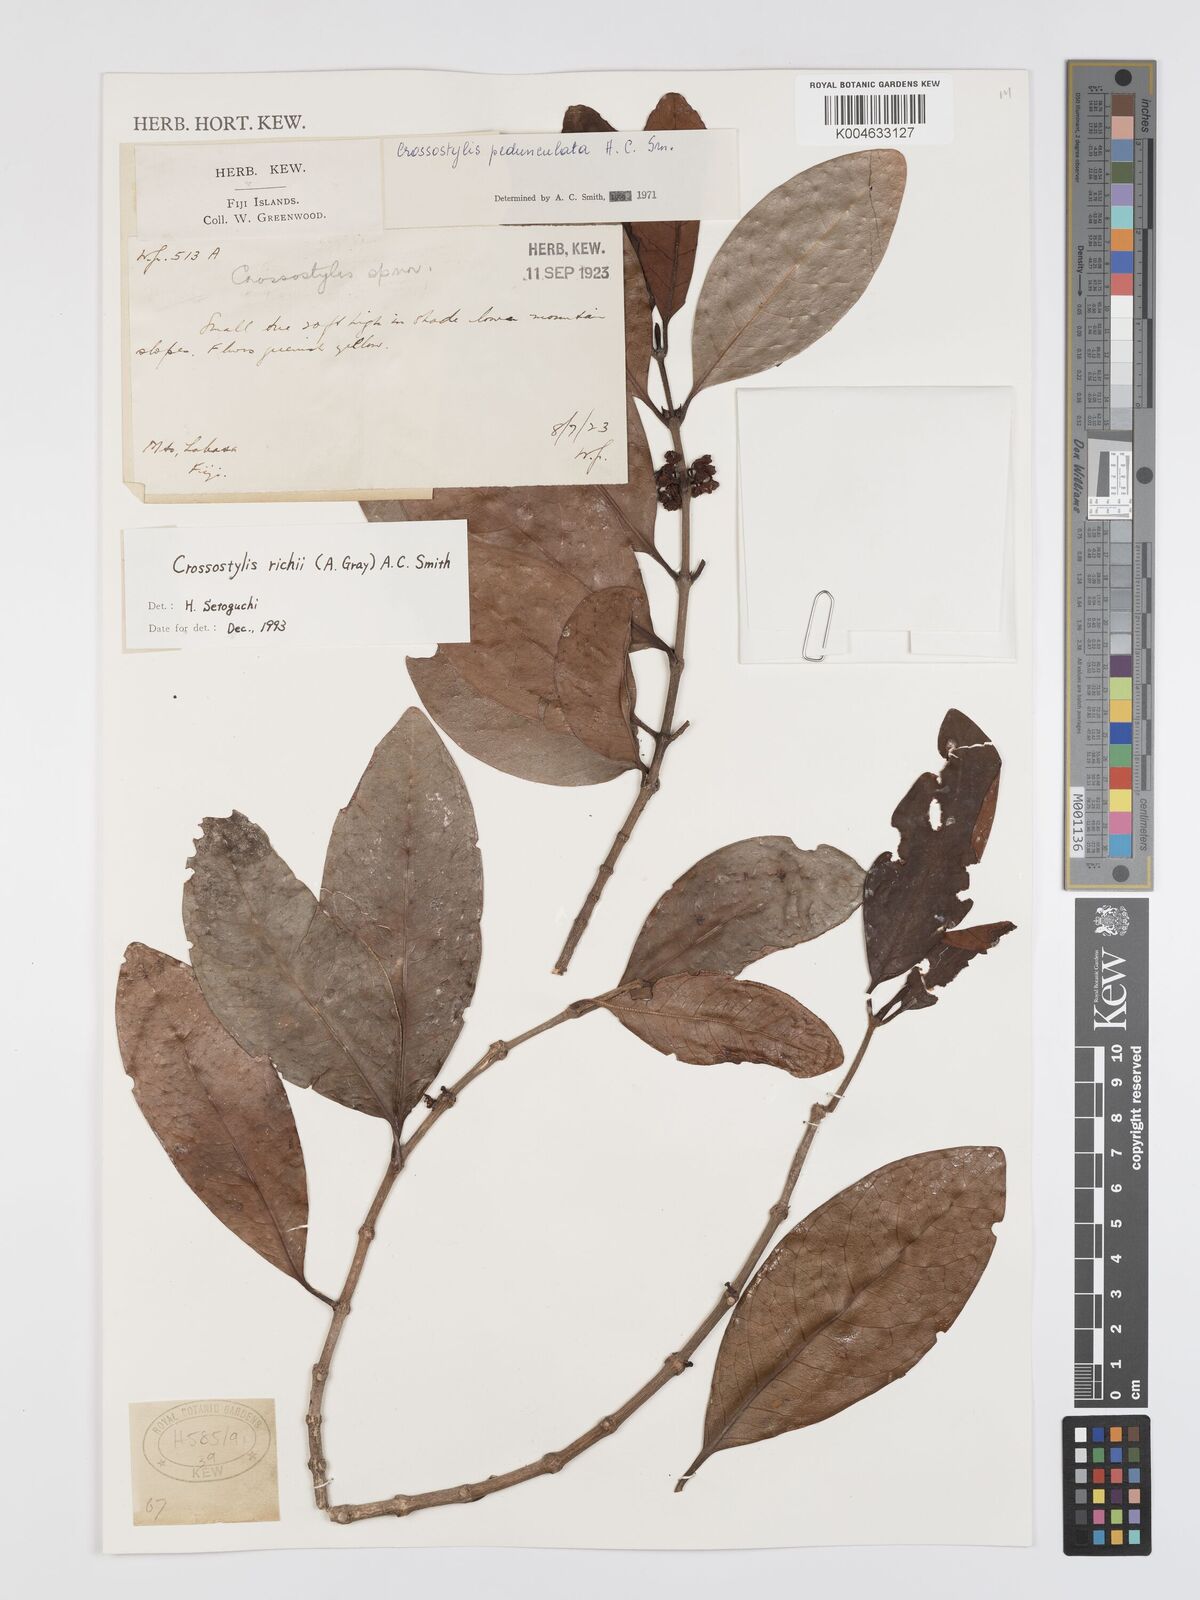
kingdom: Plantae
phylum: Tracheophyta
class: Magnoliopsida
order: Malpighiales
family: Rhizophoraceae
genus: Crossostylis
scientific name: Crossostylis richii
